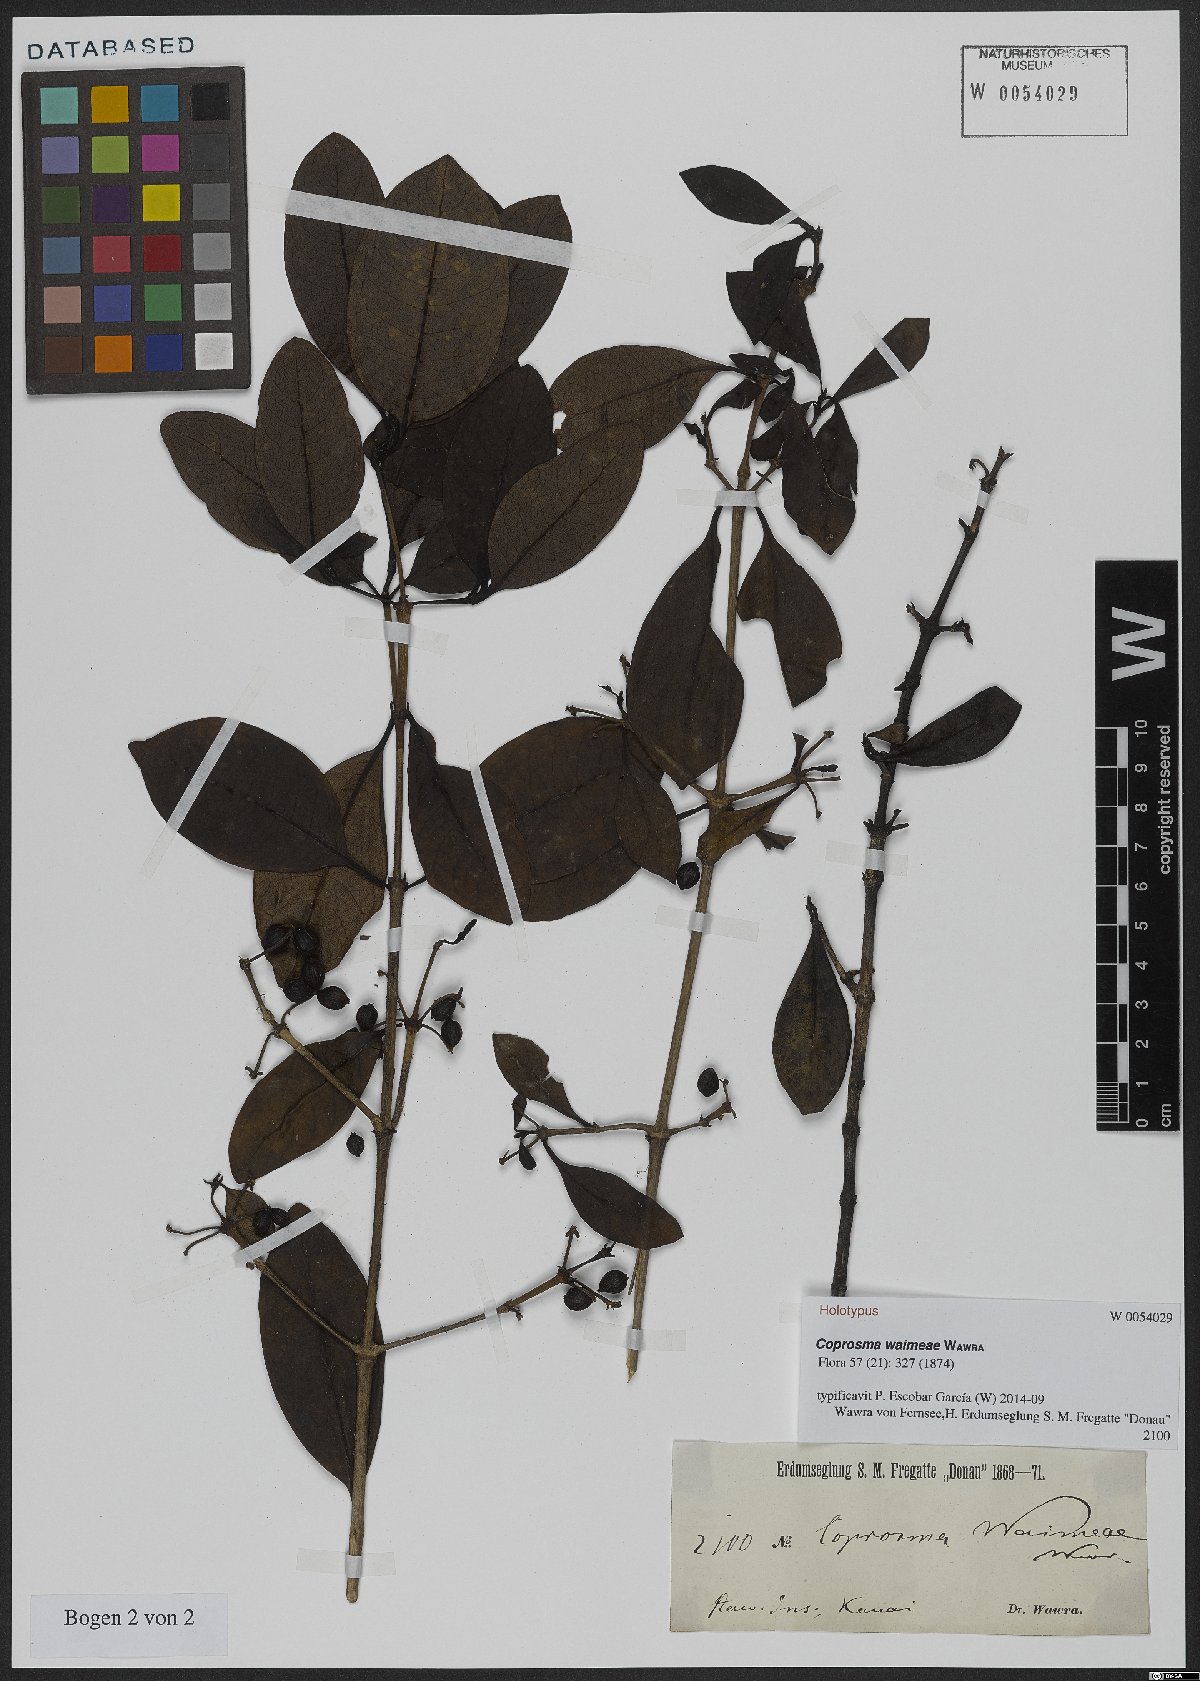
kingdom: Plantae
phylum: Tracheophyta
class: Magnoliopsida
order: Gentianales
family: Rubiaceae
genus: Coprosma
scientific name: Coprosma waimeae
